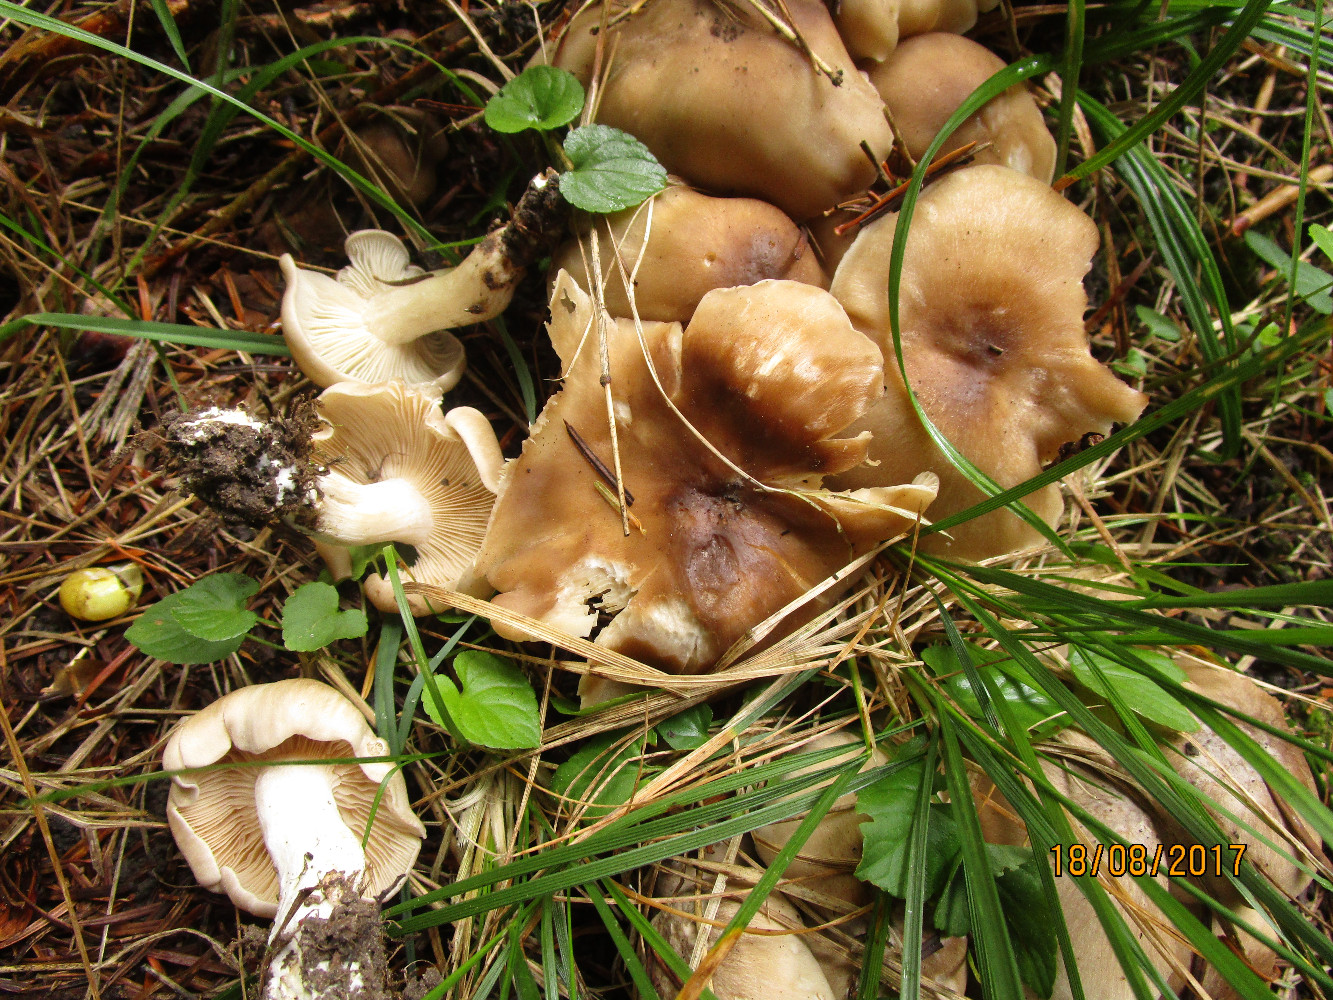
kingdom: Fungi
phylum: Basidiomycota
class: Agaricomycetes
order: Agaricales
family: Lyophyllaceae
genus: Lyophyllum
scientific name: Lyophyllum decastes
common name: røggrå gråblad
